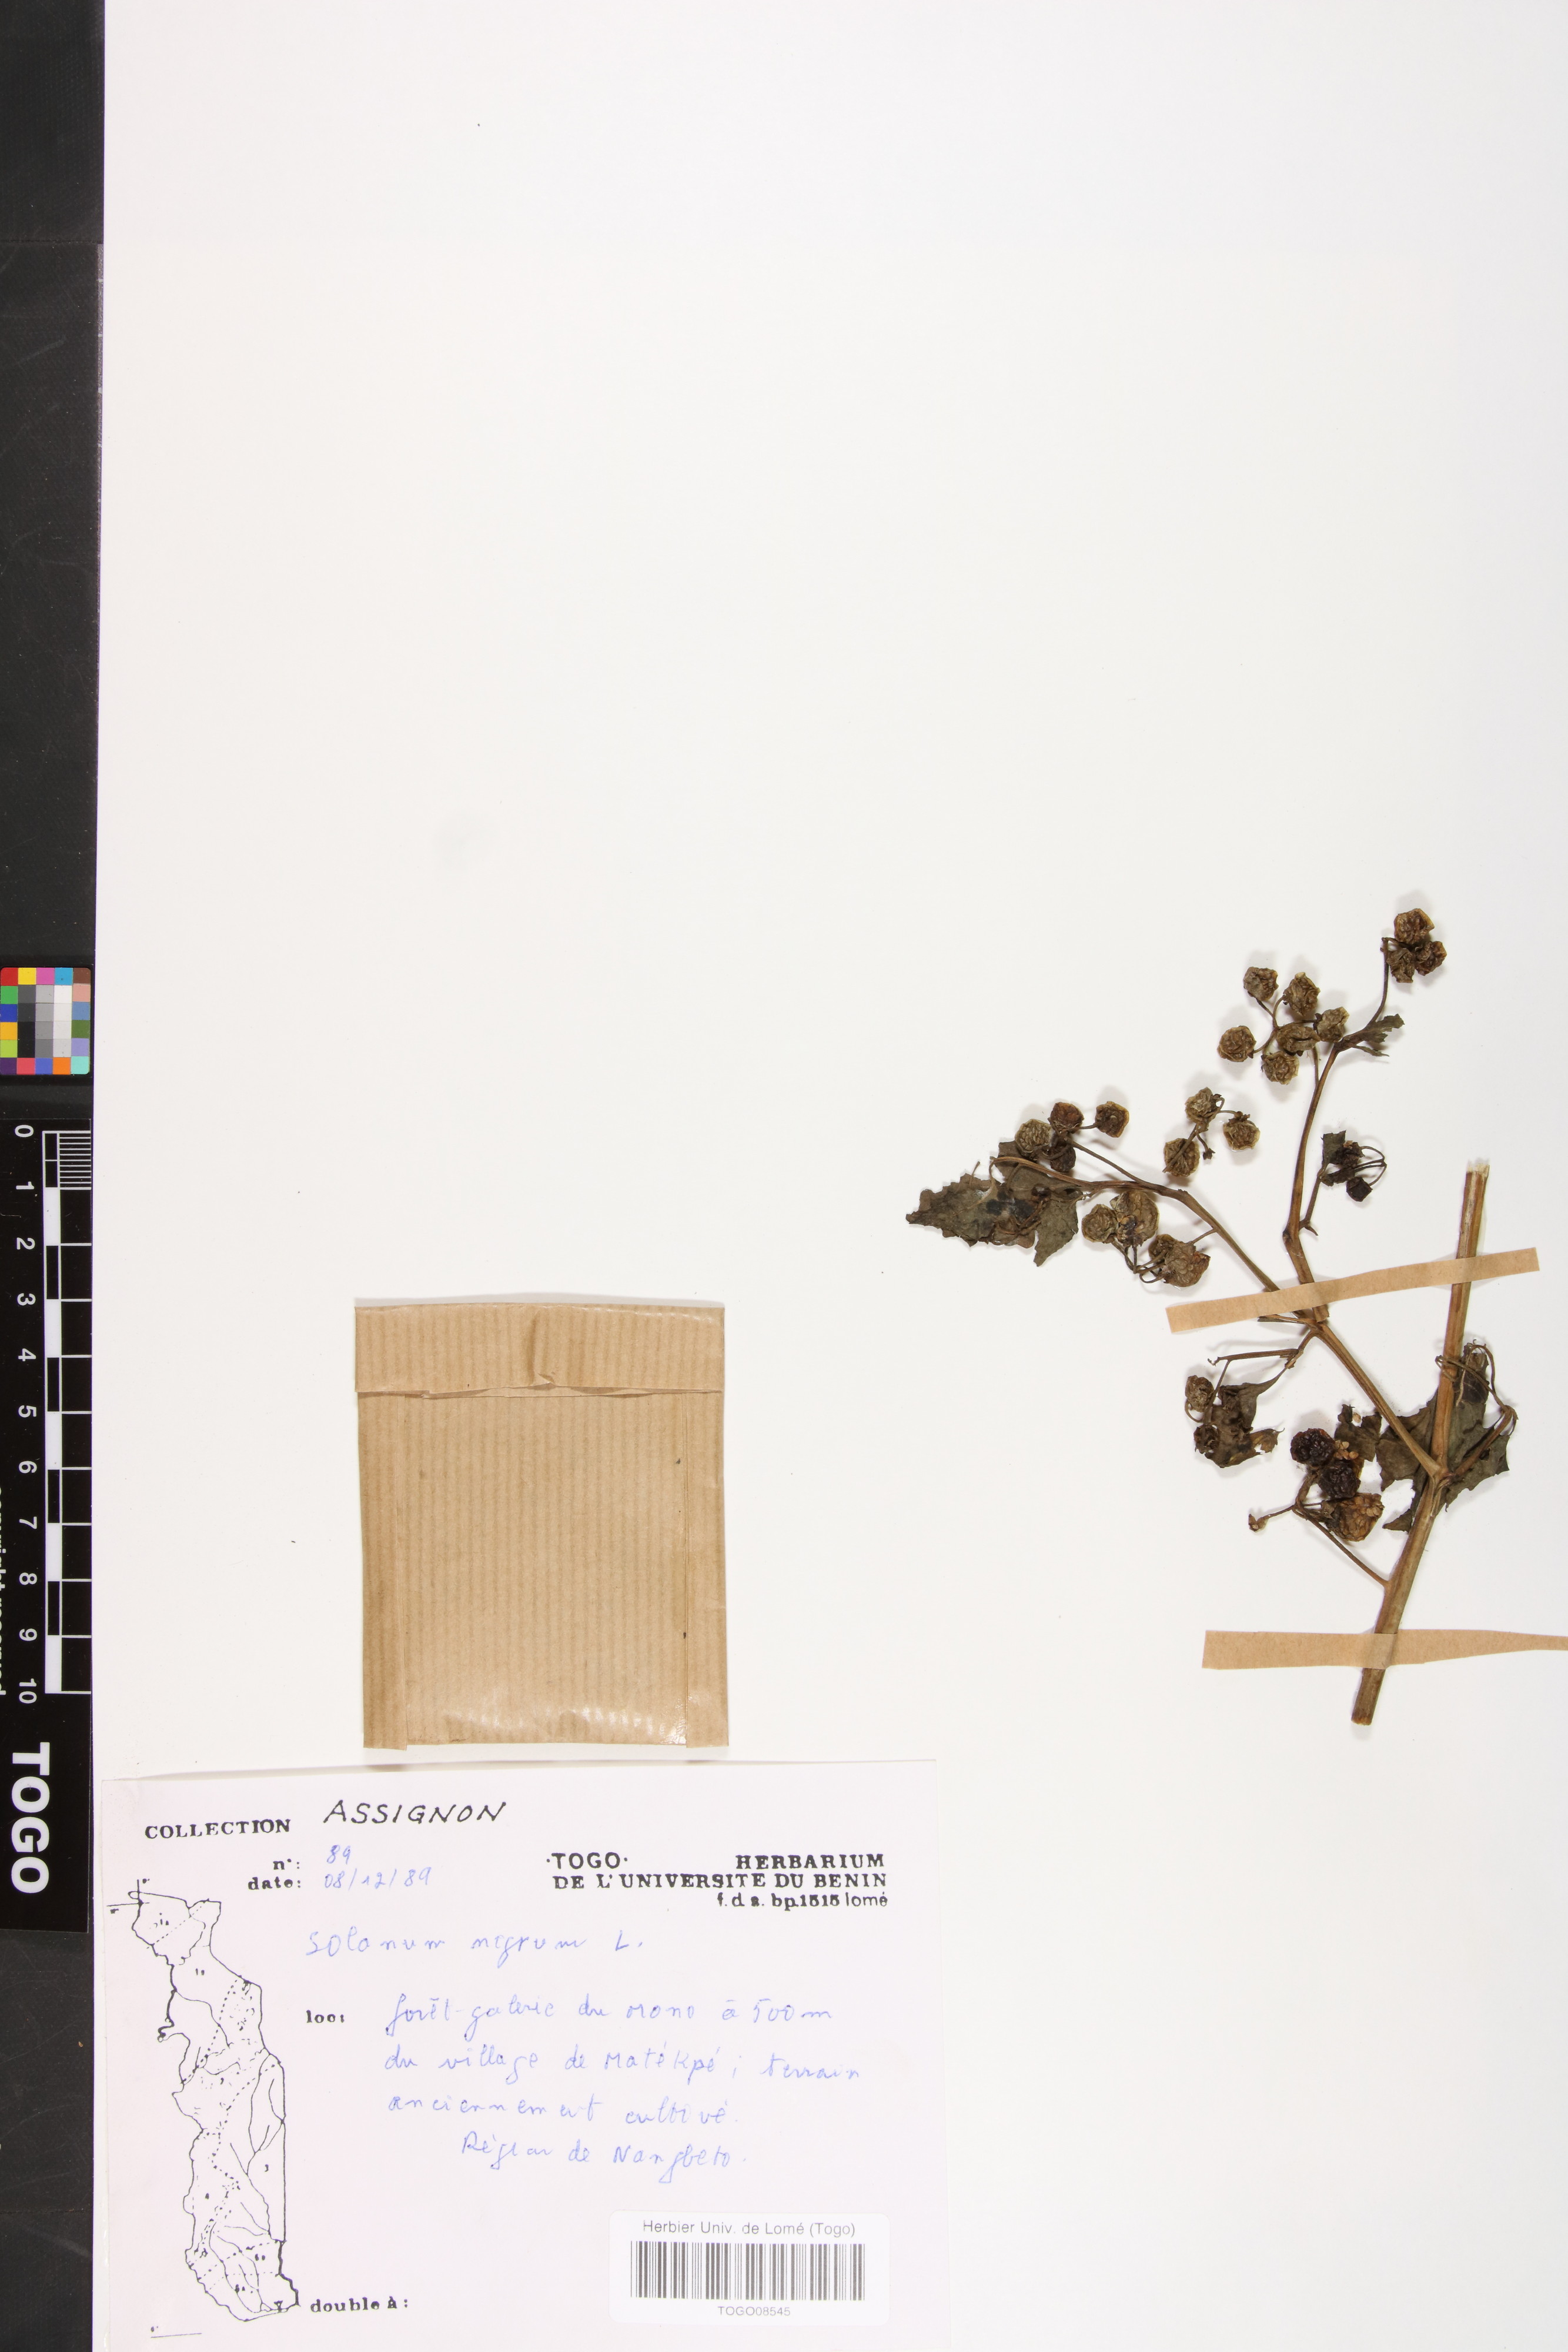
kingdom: Plantae
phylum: Tracheophyta
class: Magnoliopsida
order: Solanales
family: Solanaceae
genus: Solanum
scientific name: Solanum nigrum
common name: Black nightshade
